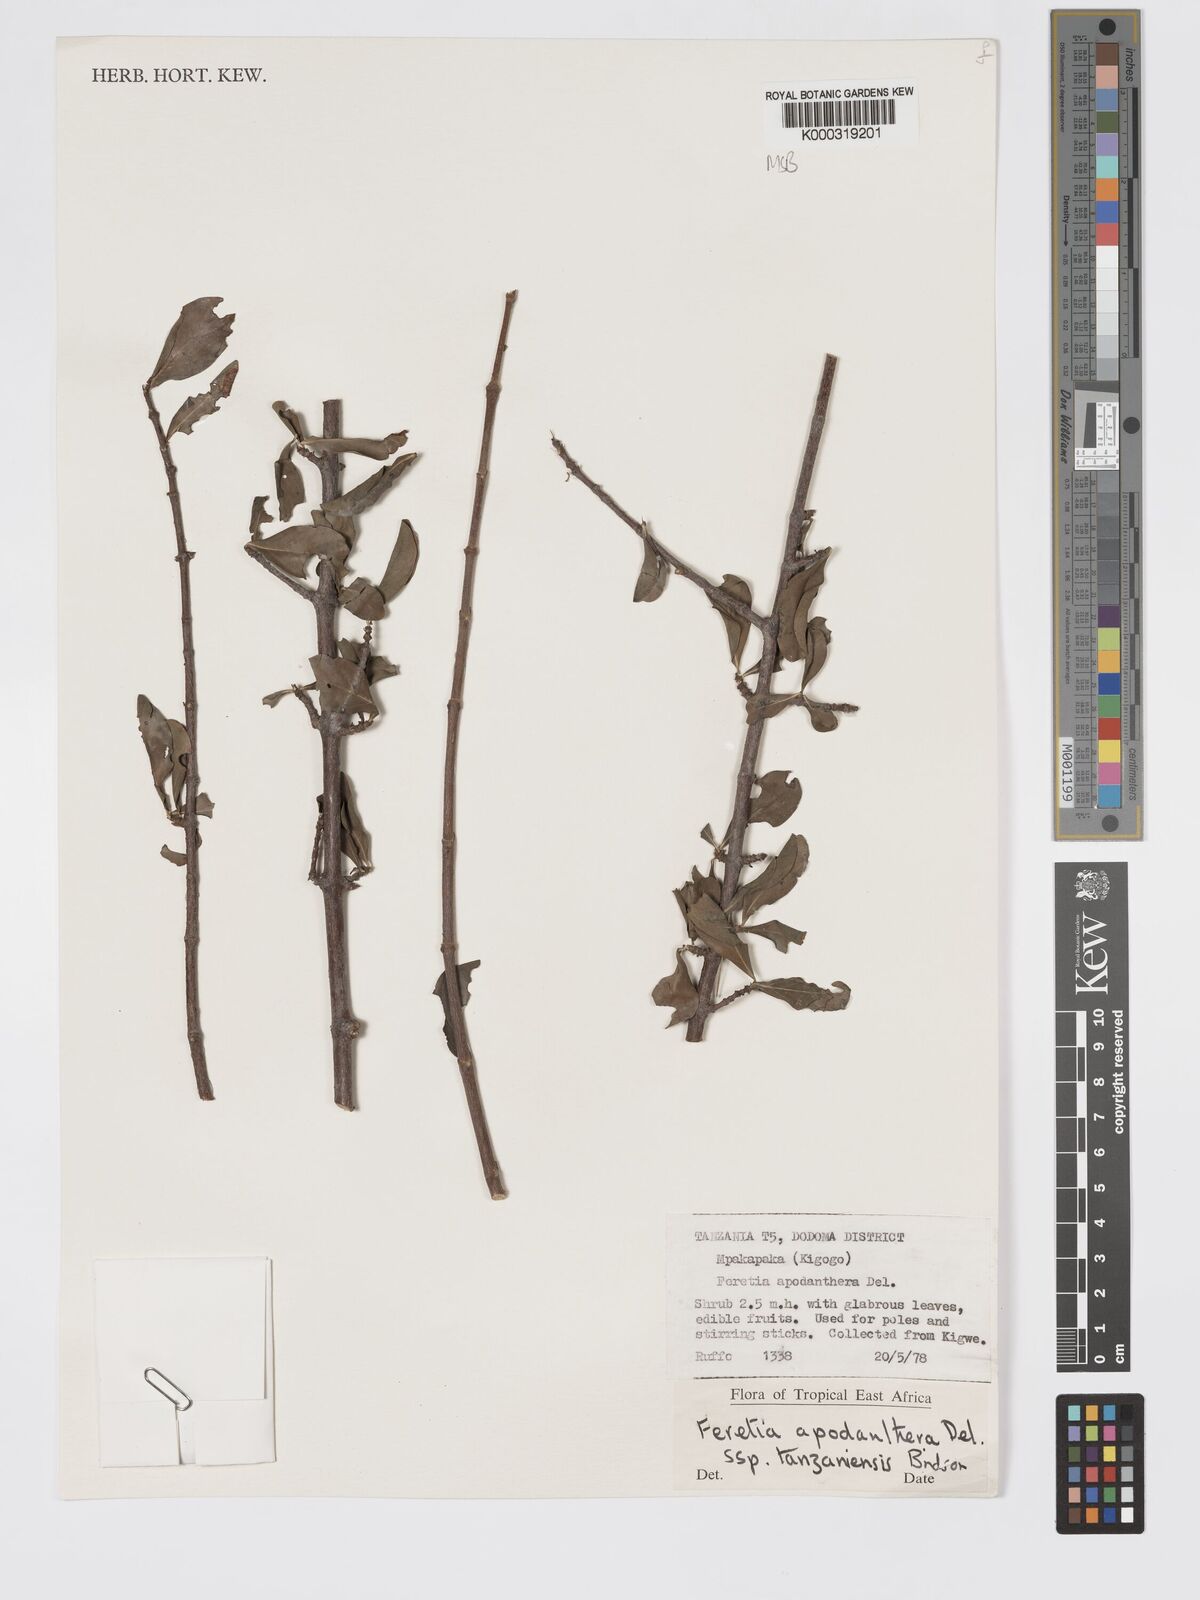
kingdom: Plantae
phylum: Tracheophyta
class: Magnoliopsida
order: Gentianales
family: Rubiaceae
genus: Feretia
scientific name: Feretia apodanthera
